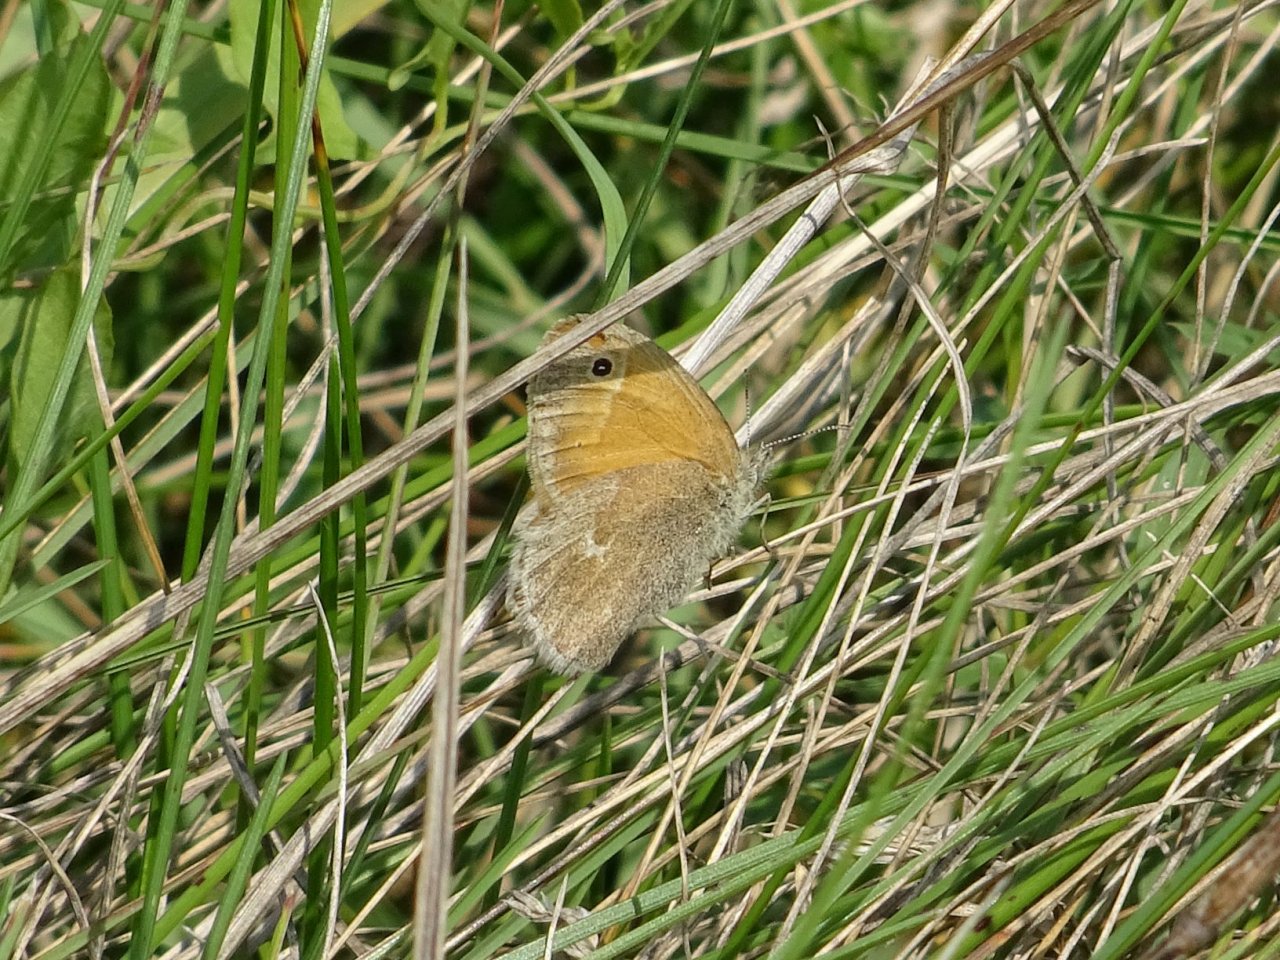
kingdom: Animalia
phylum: Arthropoda
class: Insecta
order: Lepidoptera
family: Nymphalidae
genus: Coenonympha
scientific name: Coenonympha tullia
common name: Large Heath
